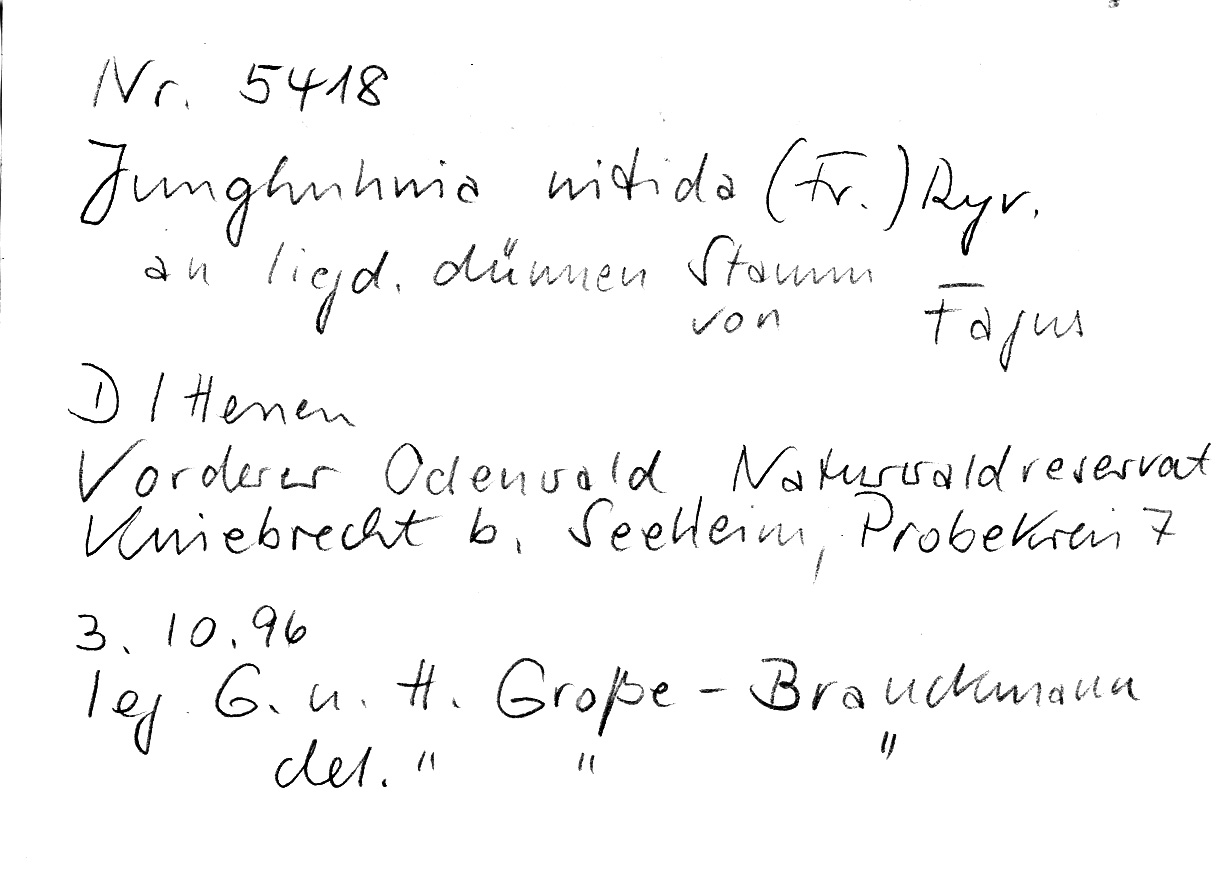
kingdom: Plantae
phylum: Tracheophyta
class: Magnoliopsida
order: Fagales
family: Fagaceae
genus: Fagus
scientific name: Fagus sylvatica
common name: Beech
